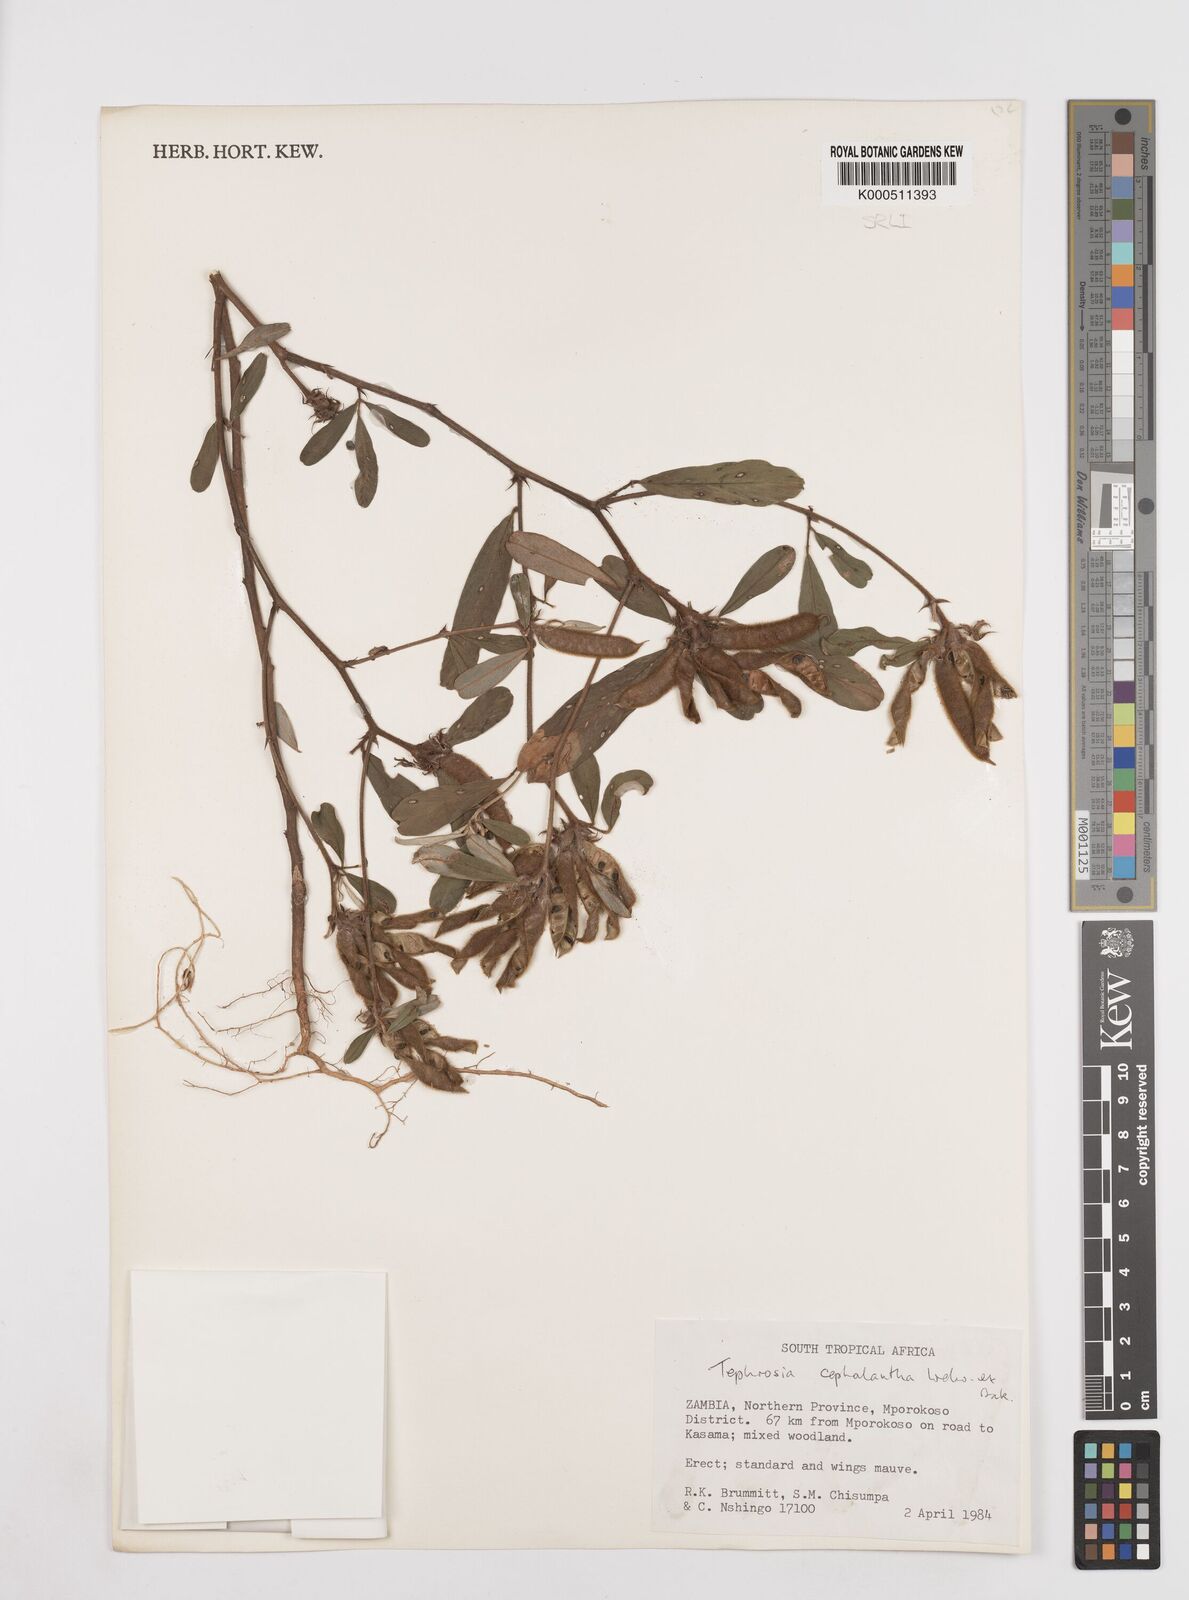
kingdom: Plantae
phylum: Tracheophyta
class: Magnoliopsida
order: Fabales
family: Fabaceae
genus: Tephrosia
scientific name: Tephrosia cephalantha
